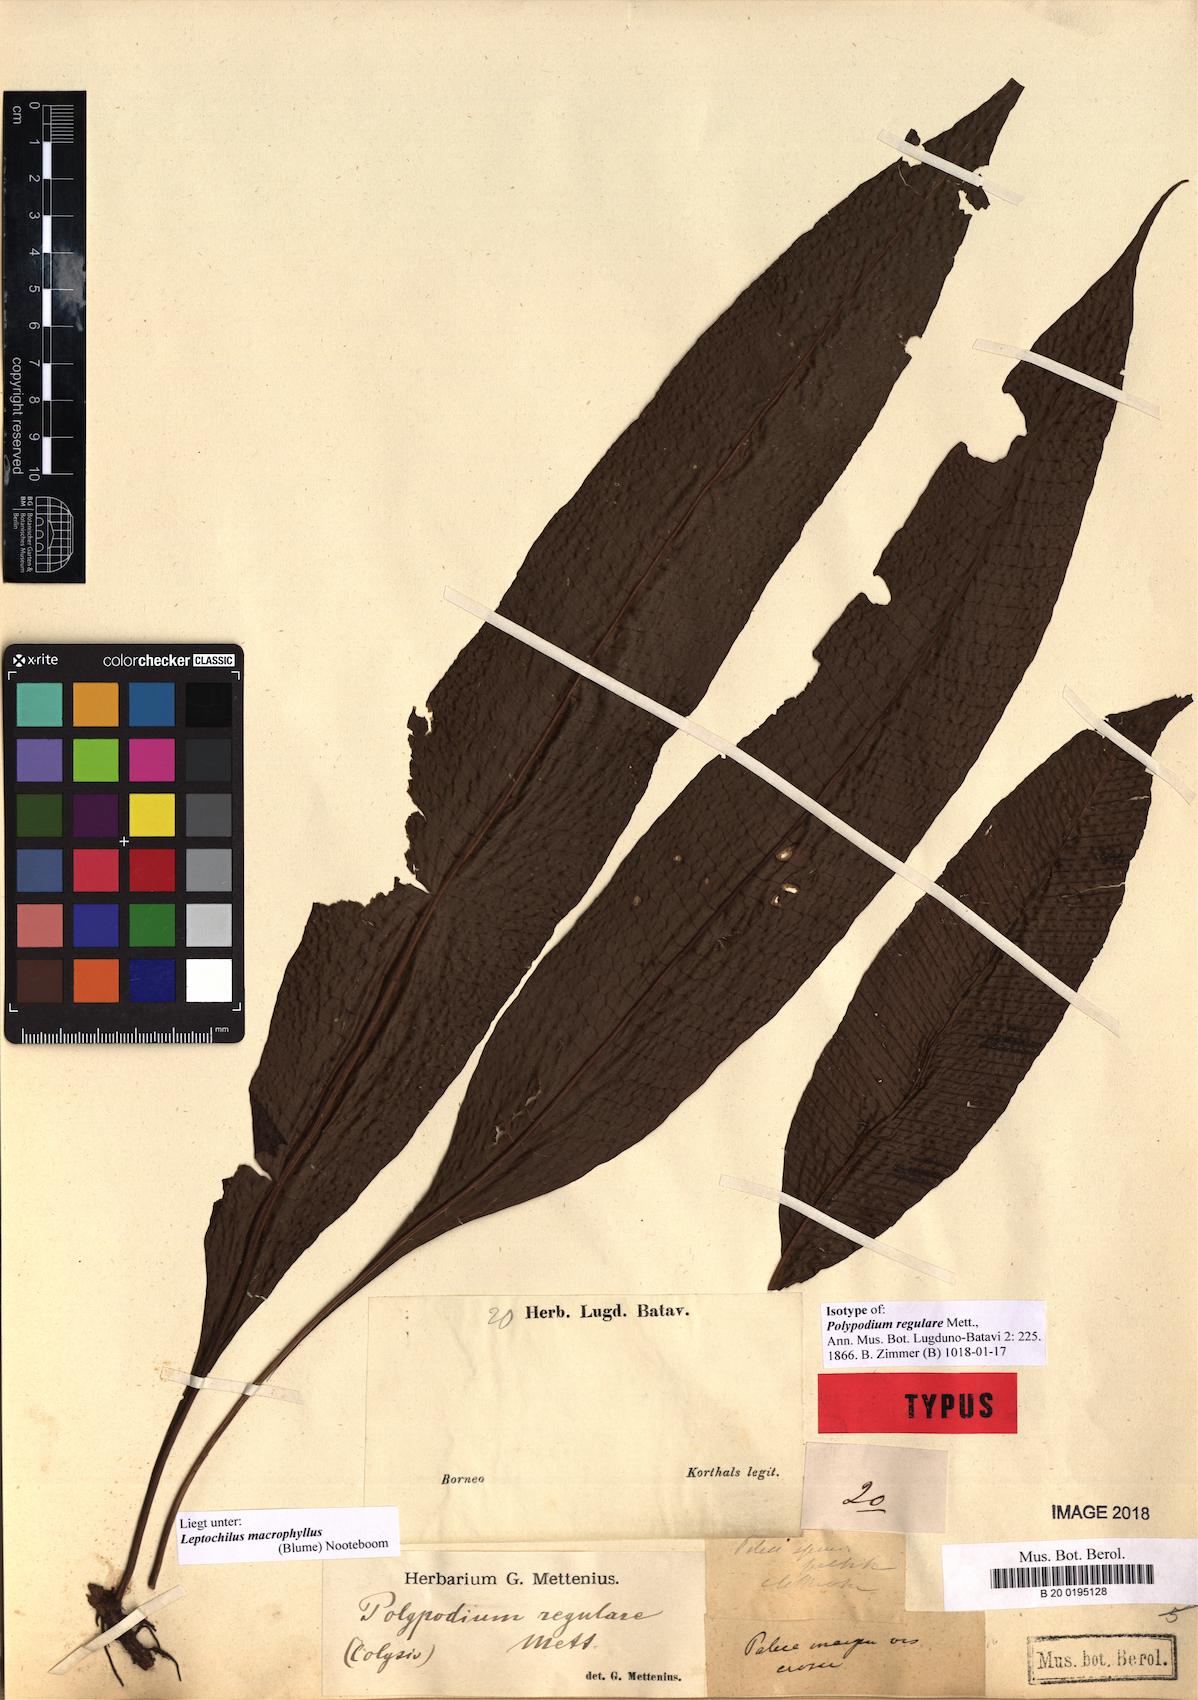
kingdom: Plantae
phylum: Tracheophyta
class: Polypodiopsida
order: Polypodiales
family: Polypodiaceae
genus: Leptochilus
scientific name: Leptochilus macrophyllus
